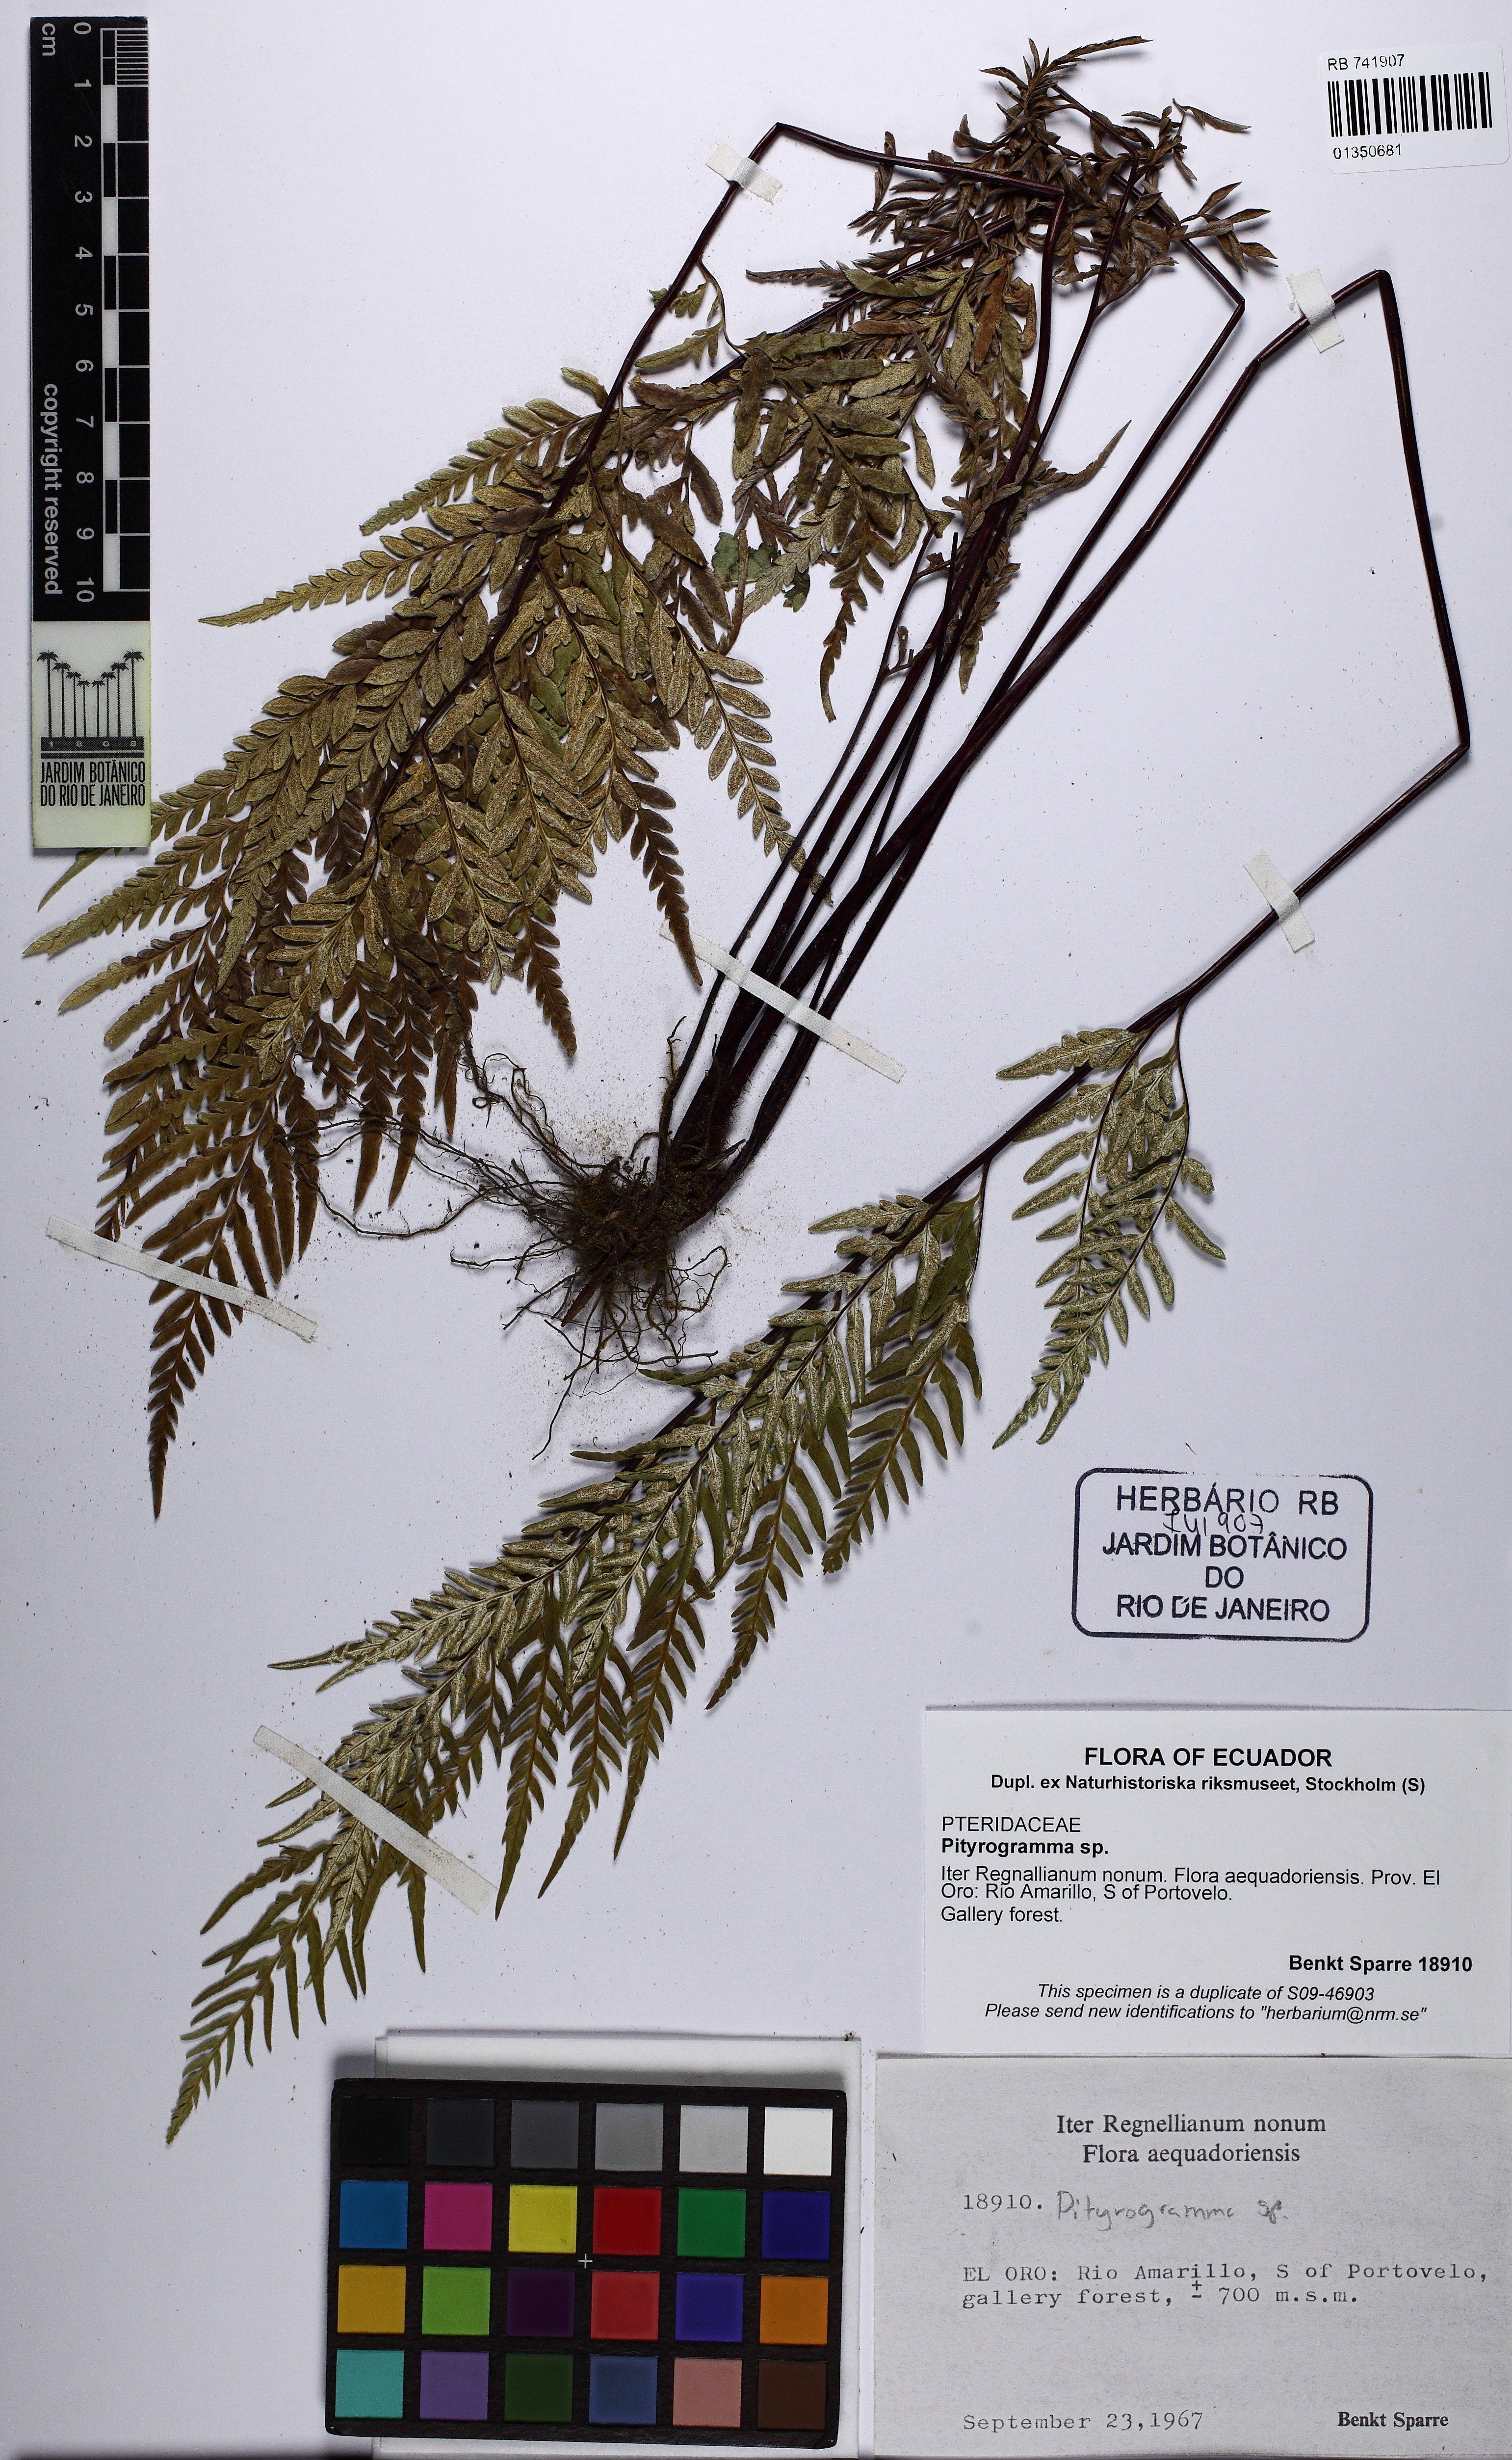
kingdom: Plantae
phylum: Tracheophyta
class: Polypodiopsida
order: Polypodiales
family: Pteridaceae
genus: Pityrogramma
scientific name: Pityrogramma
